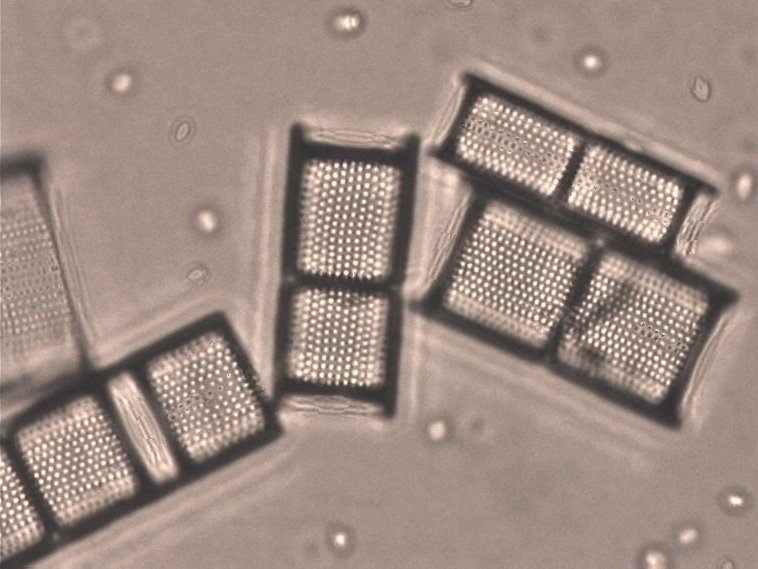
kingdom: Chromista
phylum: Ochrophyta
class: Bacillariophyceae
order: Aulacoseirales
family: Aulacoseiraceae
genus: Aulacoseira
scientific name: Aulacoseira islandica
